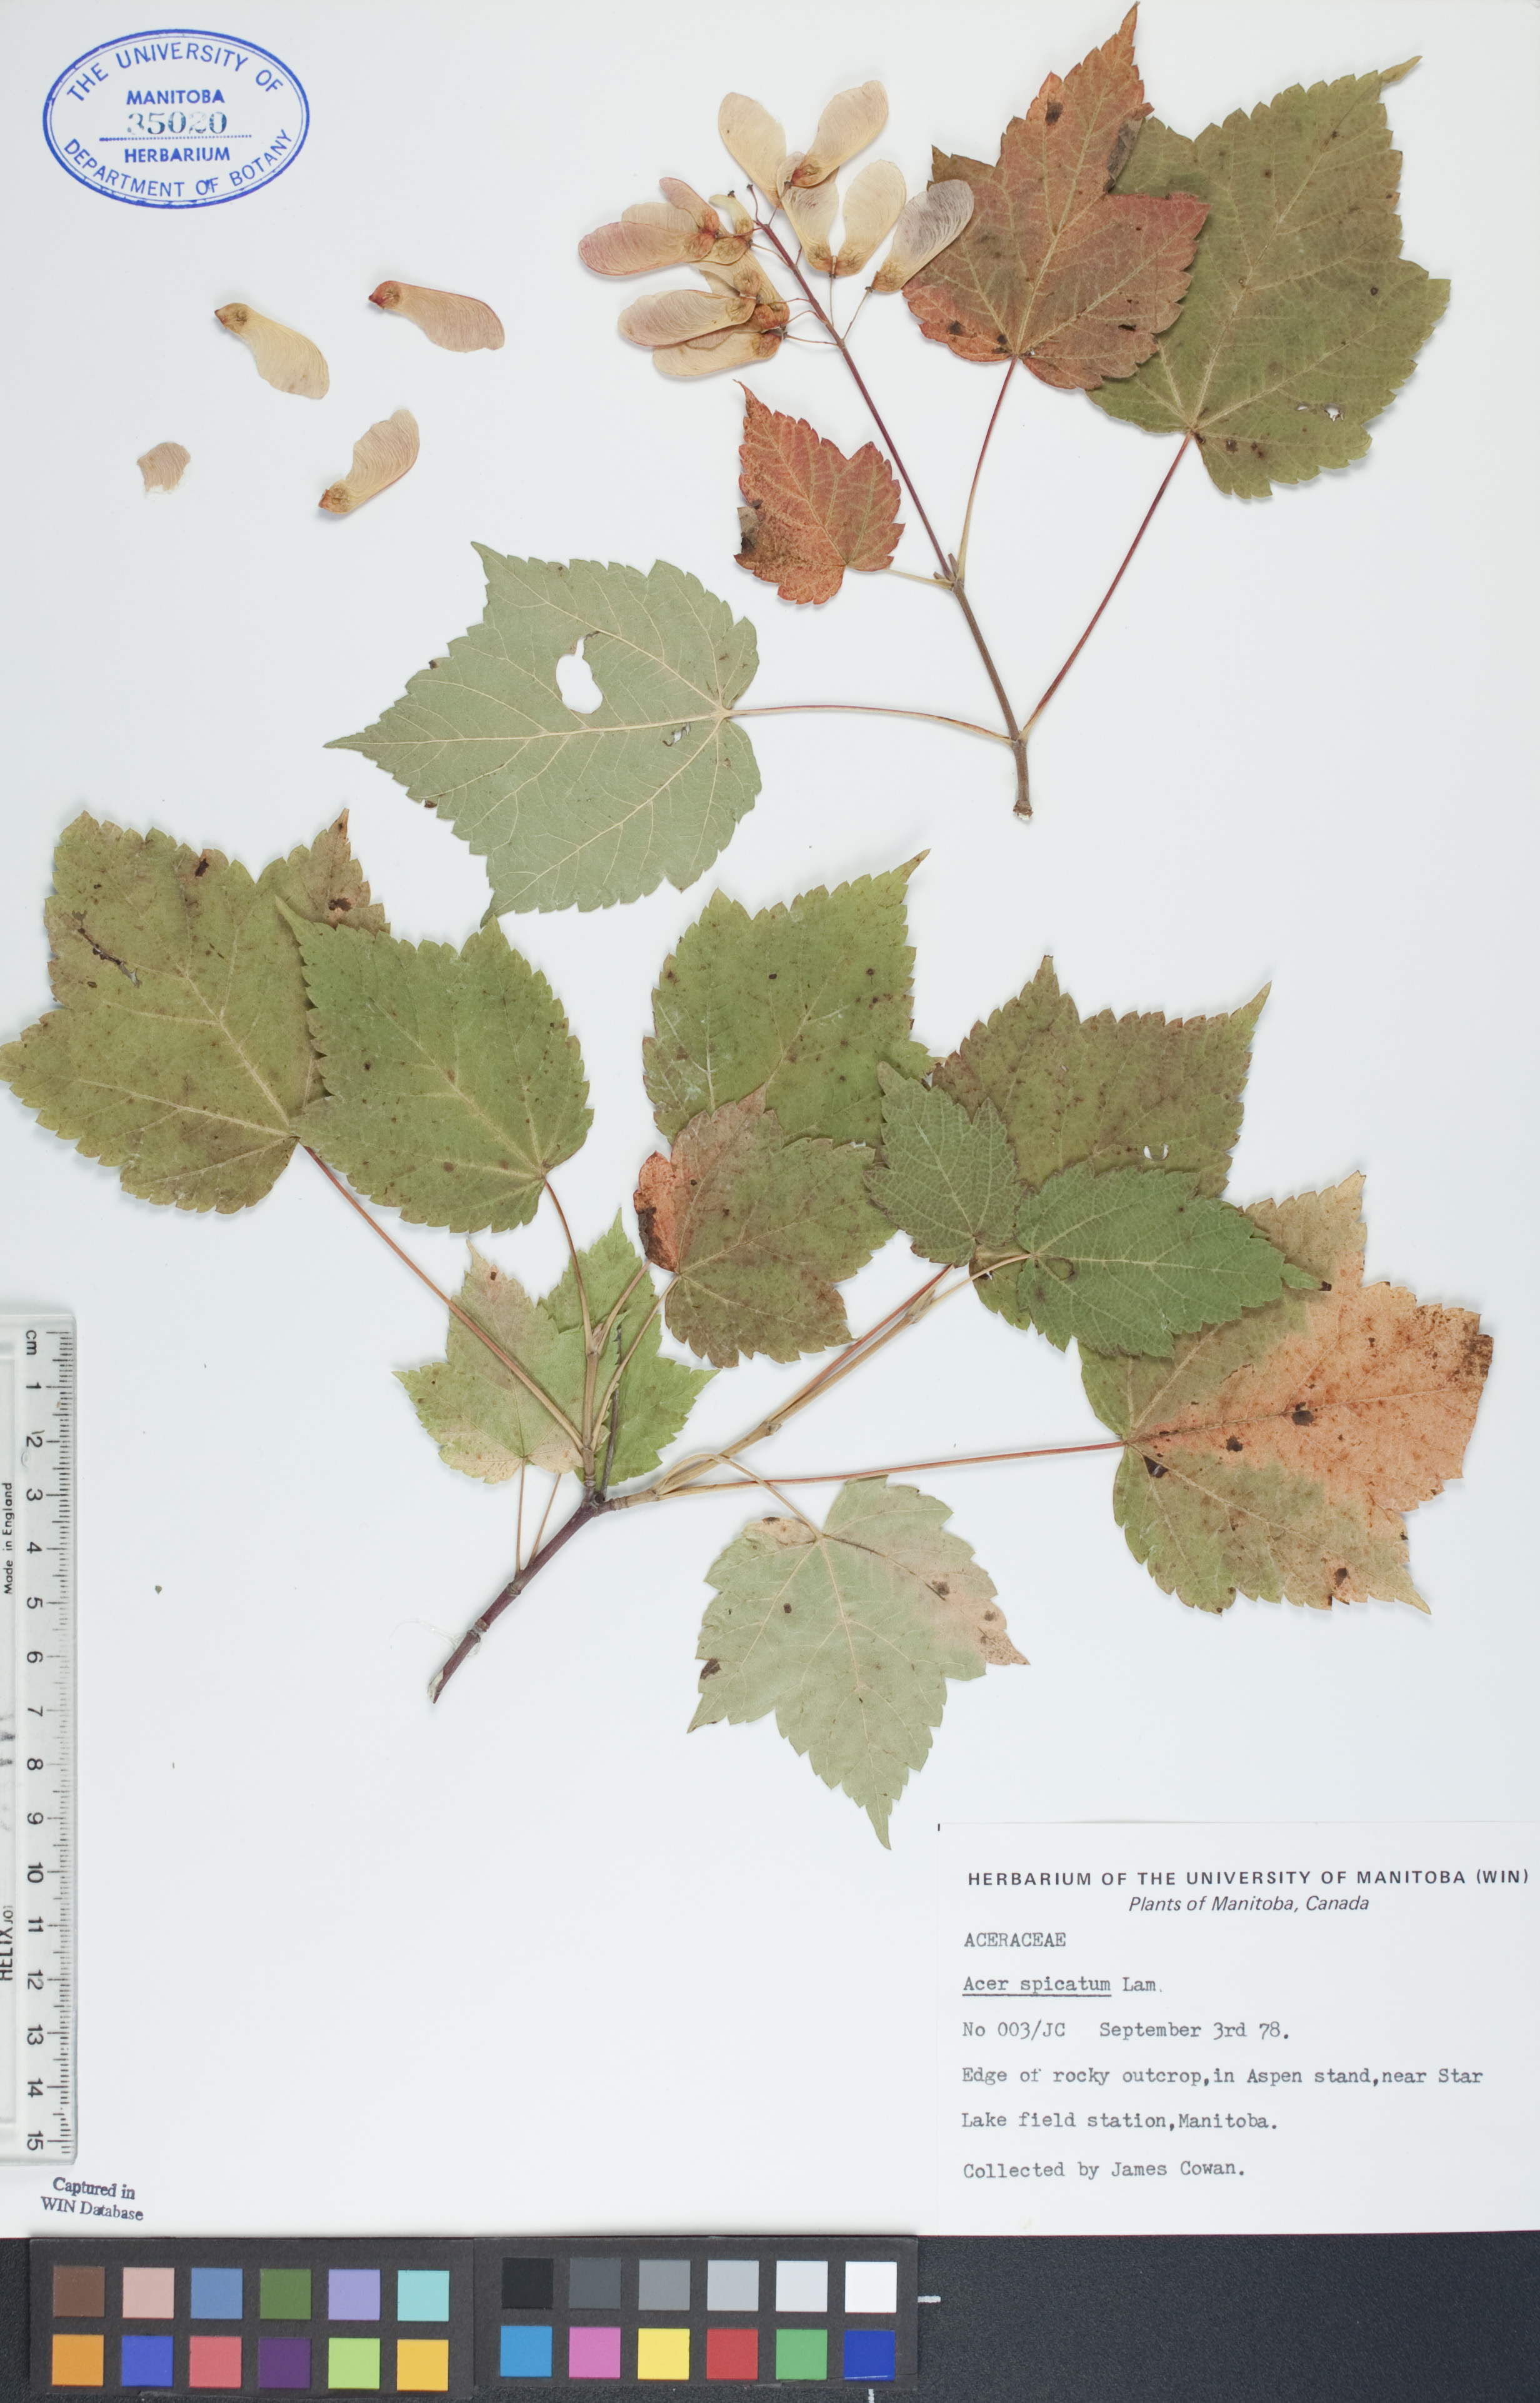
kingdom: Plantae
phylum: Tracheophyta
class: Magnoliopsida
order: Sapindales
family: Sapindaceae
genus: Acer
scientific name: Acer spicatum
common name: Mountain maple
